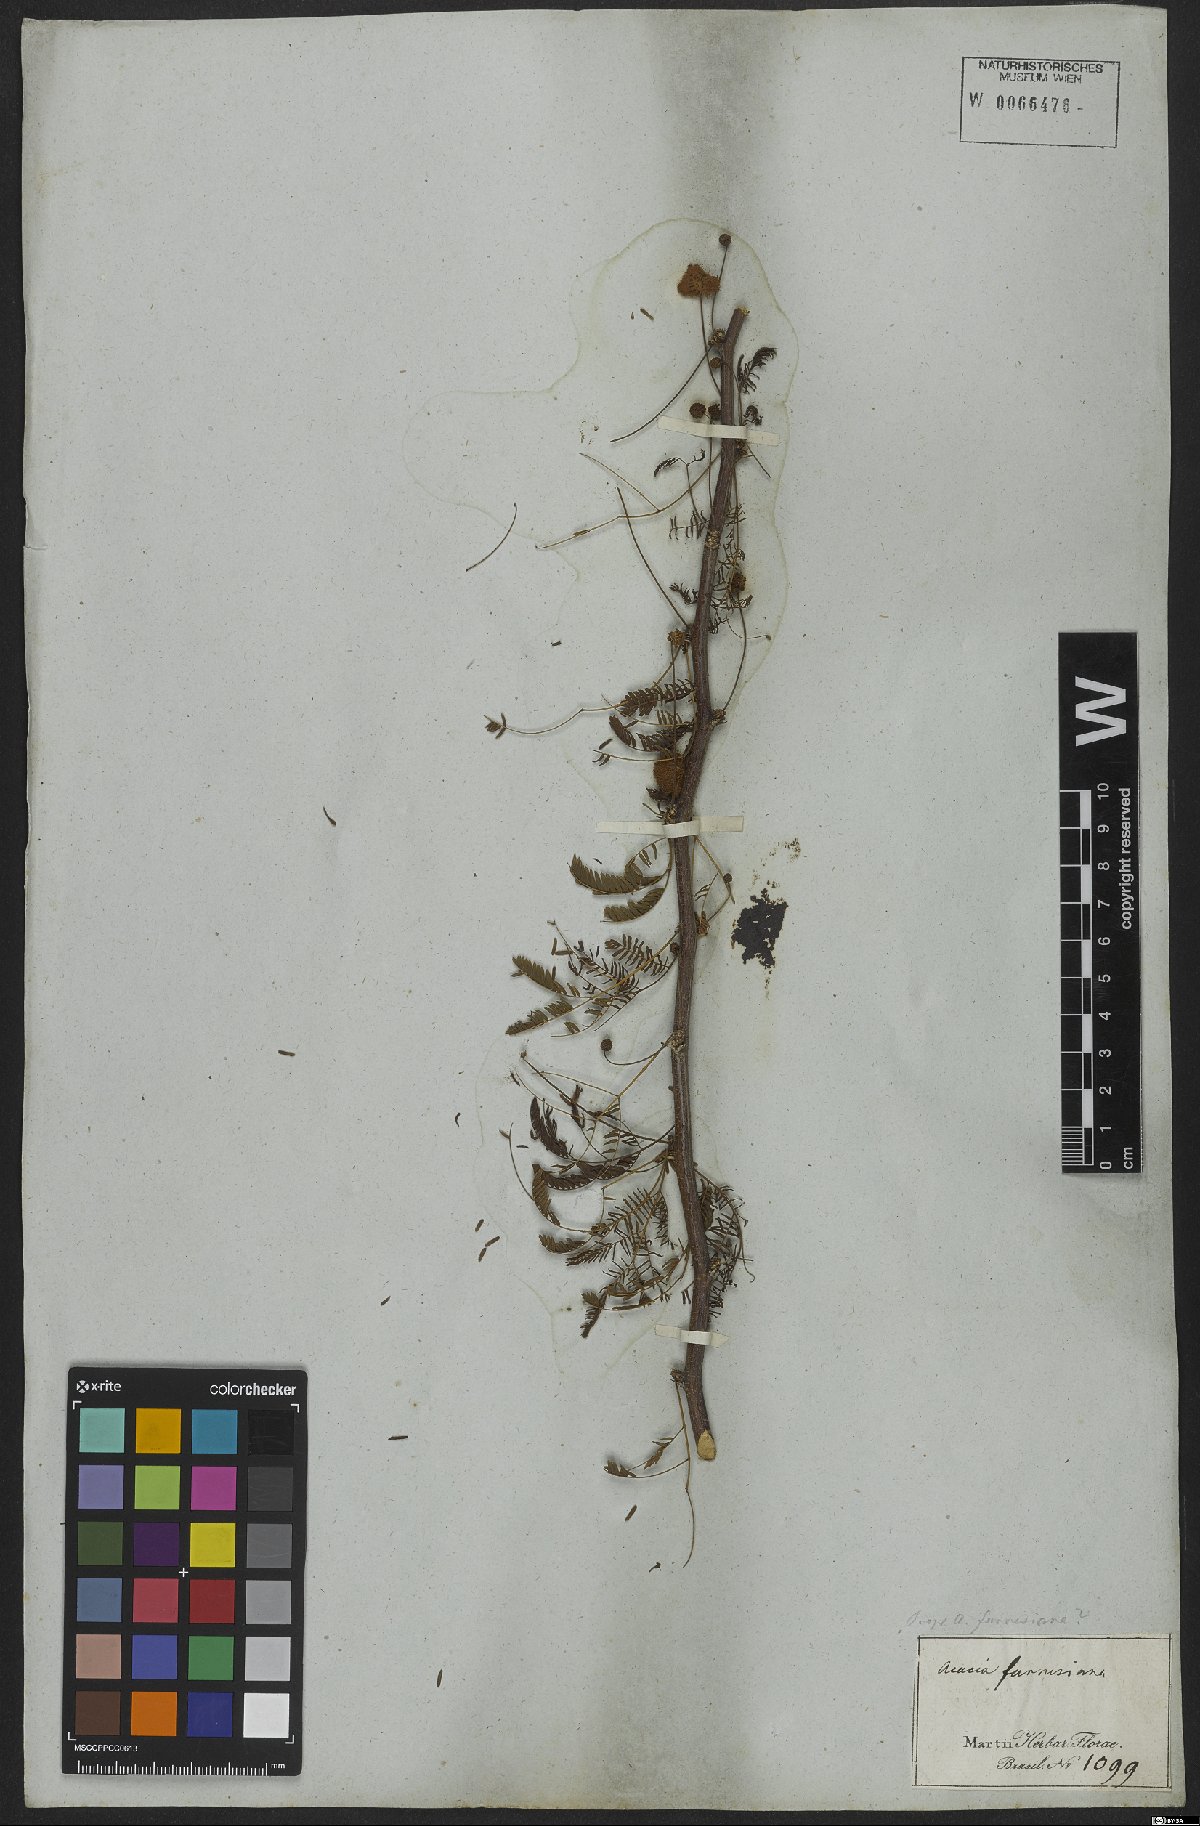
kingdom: Plantae
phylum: Tracheophyta
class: Magnoliopsida
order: Fabales
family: Fabaceae
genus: Vachellia
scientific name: Vachellia farnesiana
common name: Sweet acacia
